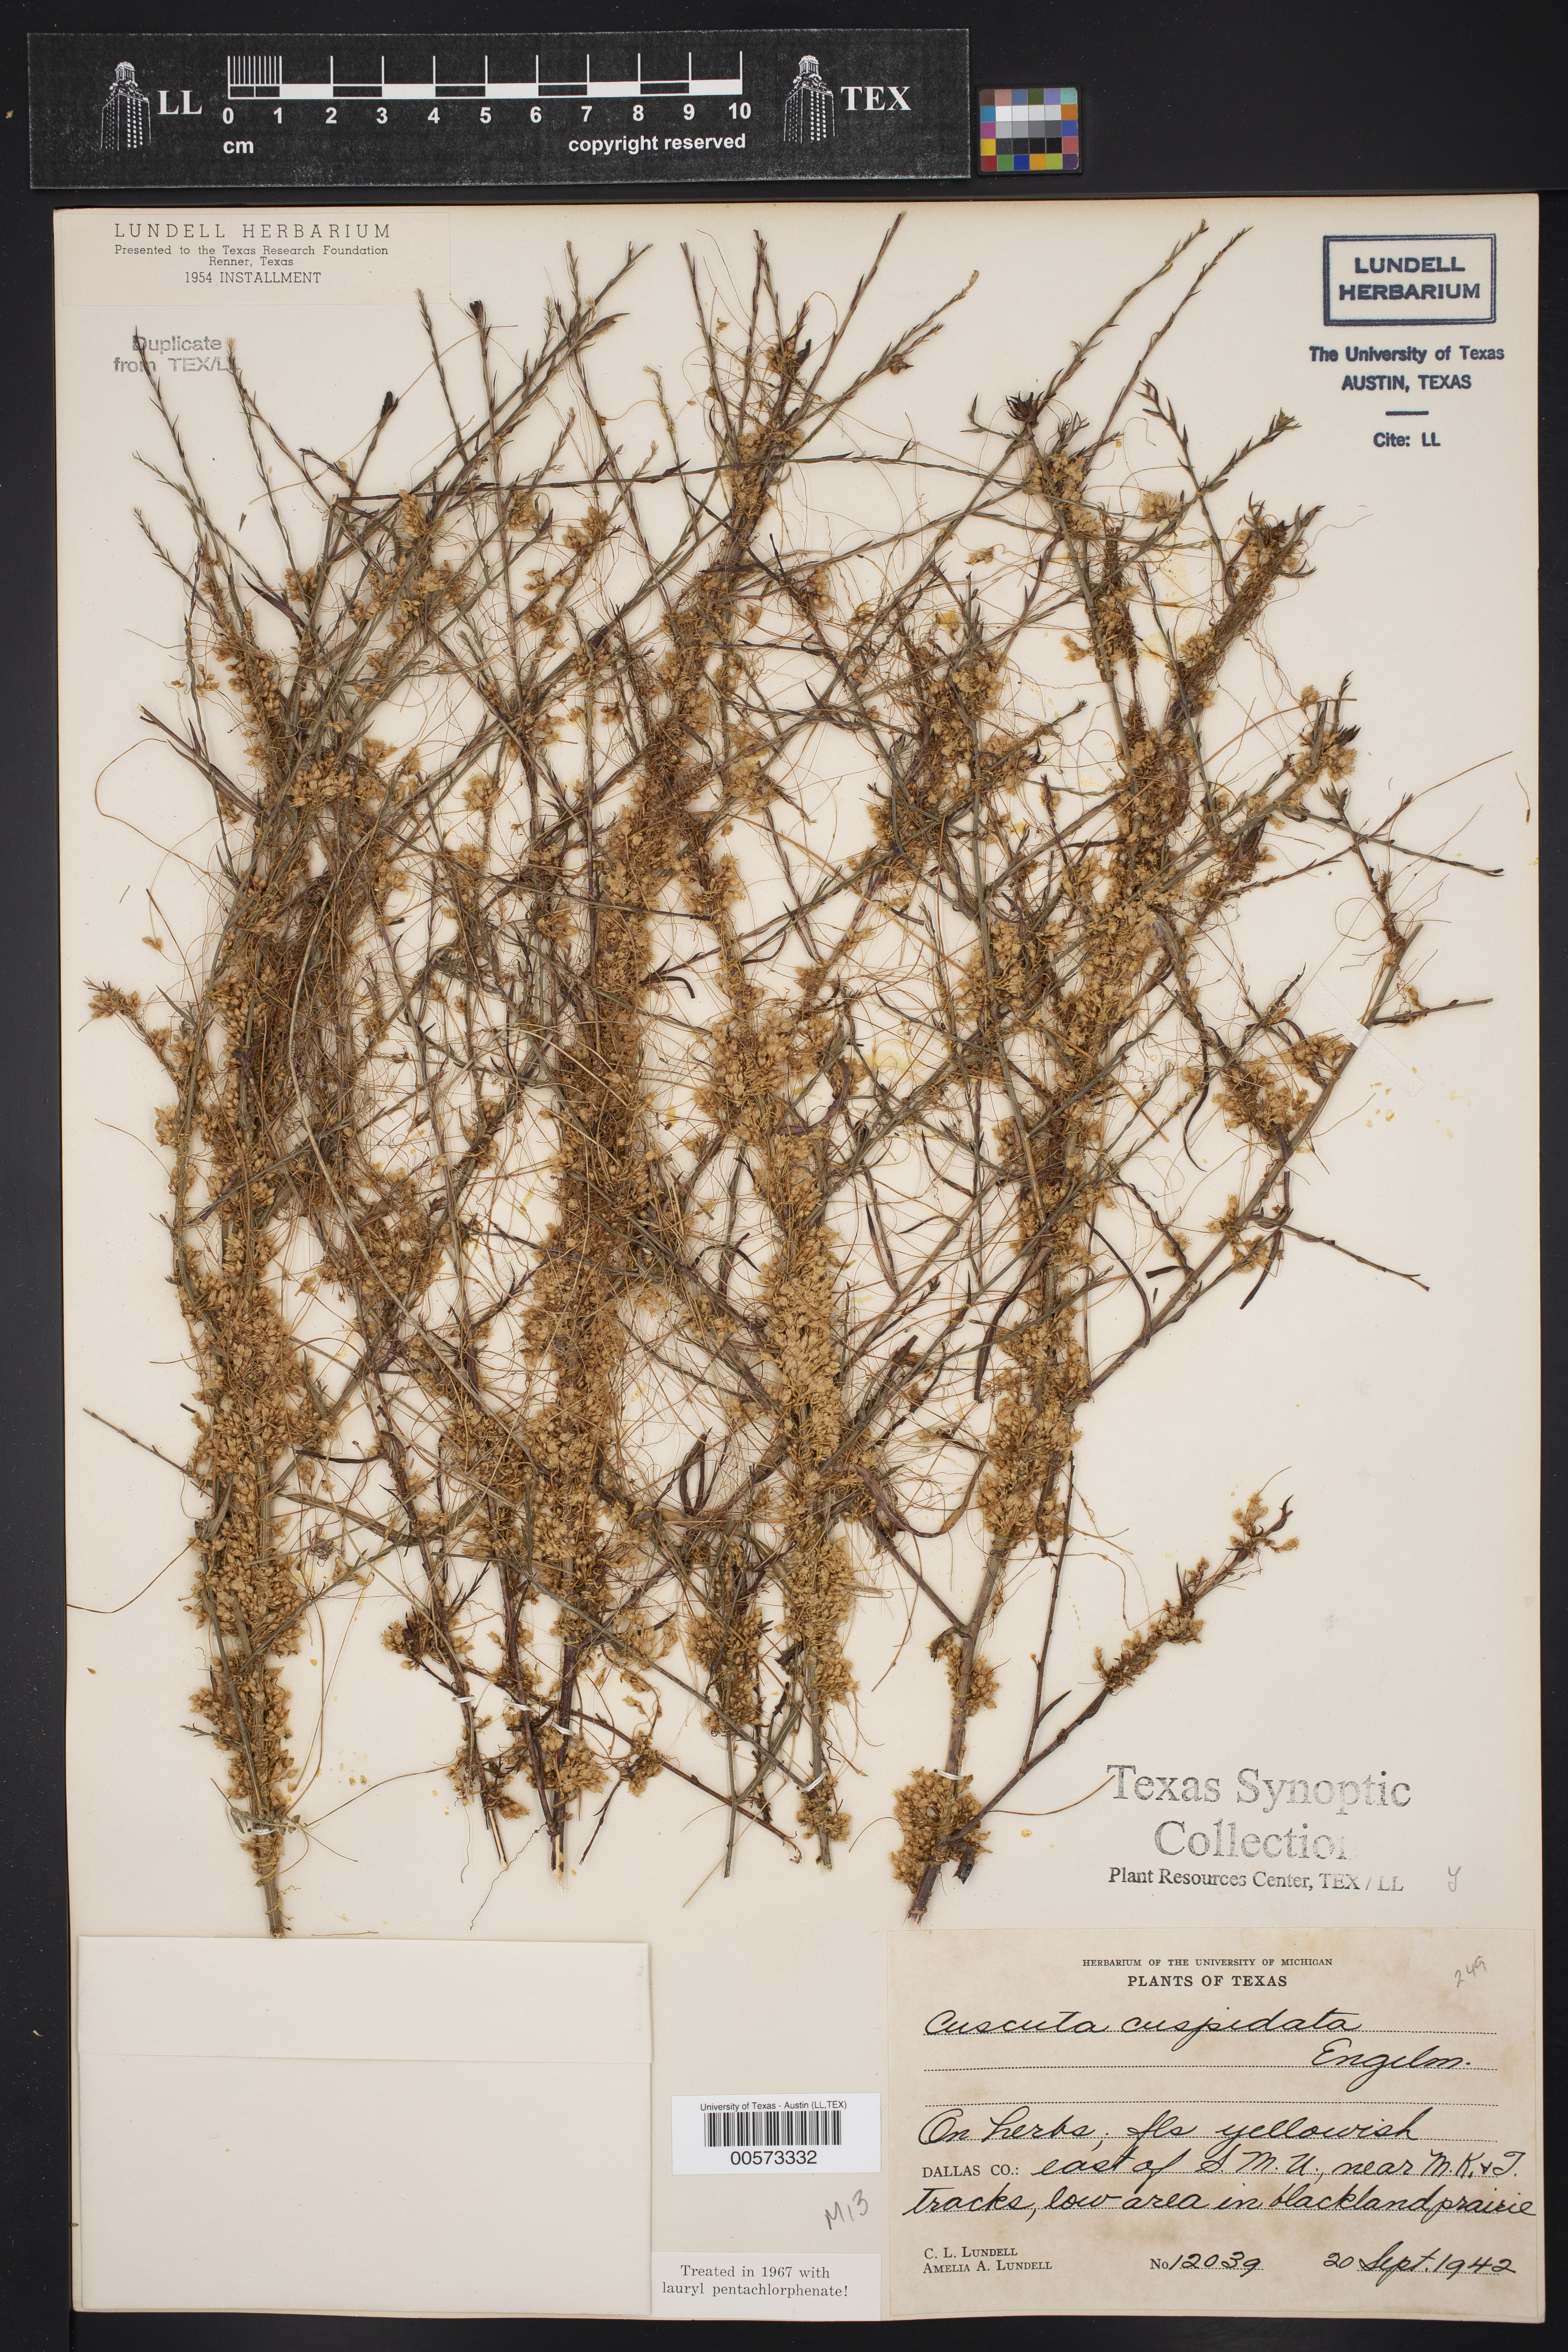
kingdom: Plantae
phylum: Tracheophyta
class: Magnoliopsida
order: Solanales
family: Convolvulaceae
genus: Cuscuta
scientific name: Cuscuta cuspidata
